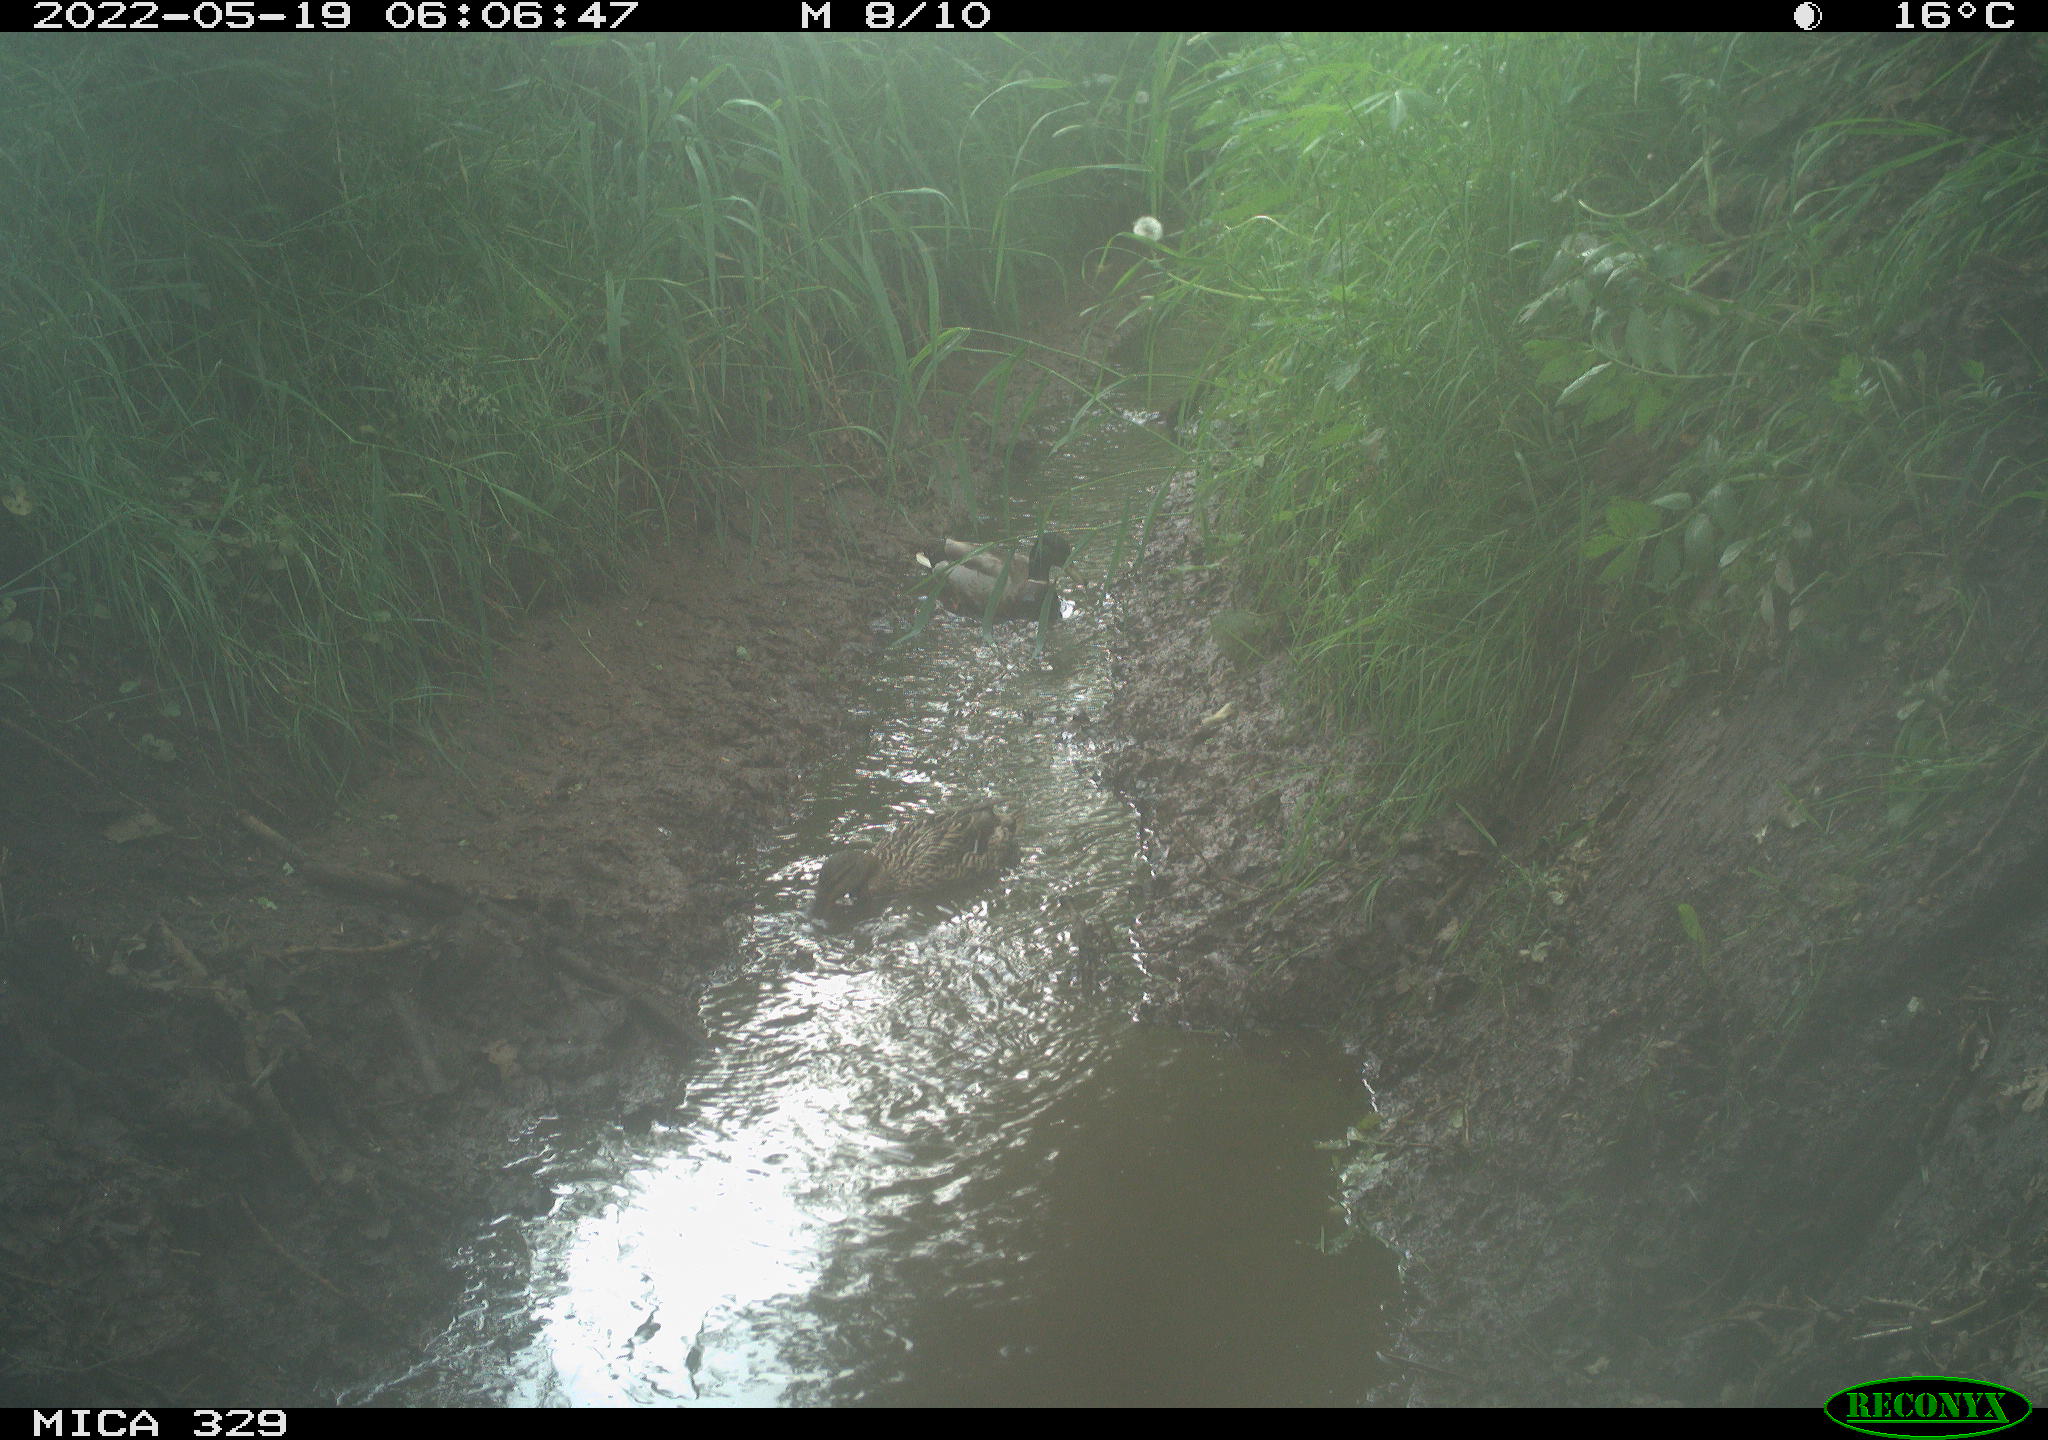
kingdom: Animalia
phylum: Chordata
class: Aves
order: Anseriformes
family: Anatidae
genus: Anas
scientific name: Anas platyrhynchos
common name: Mallard
